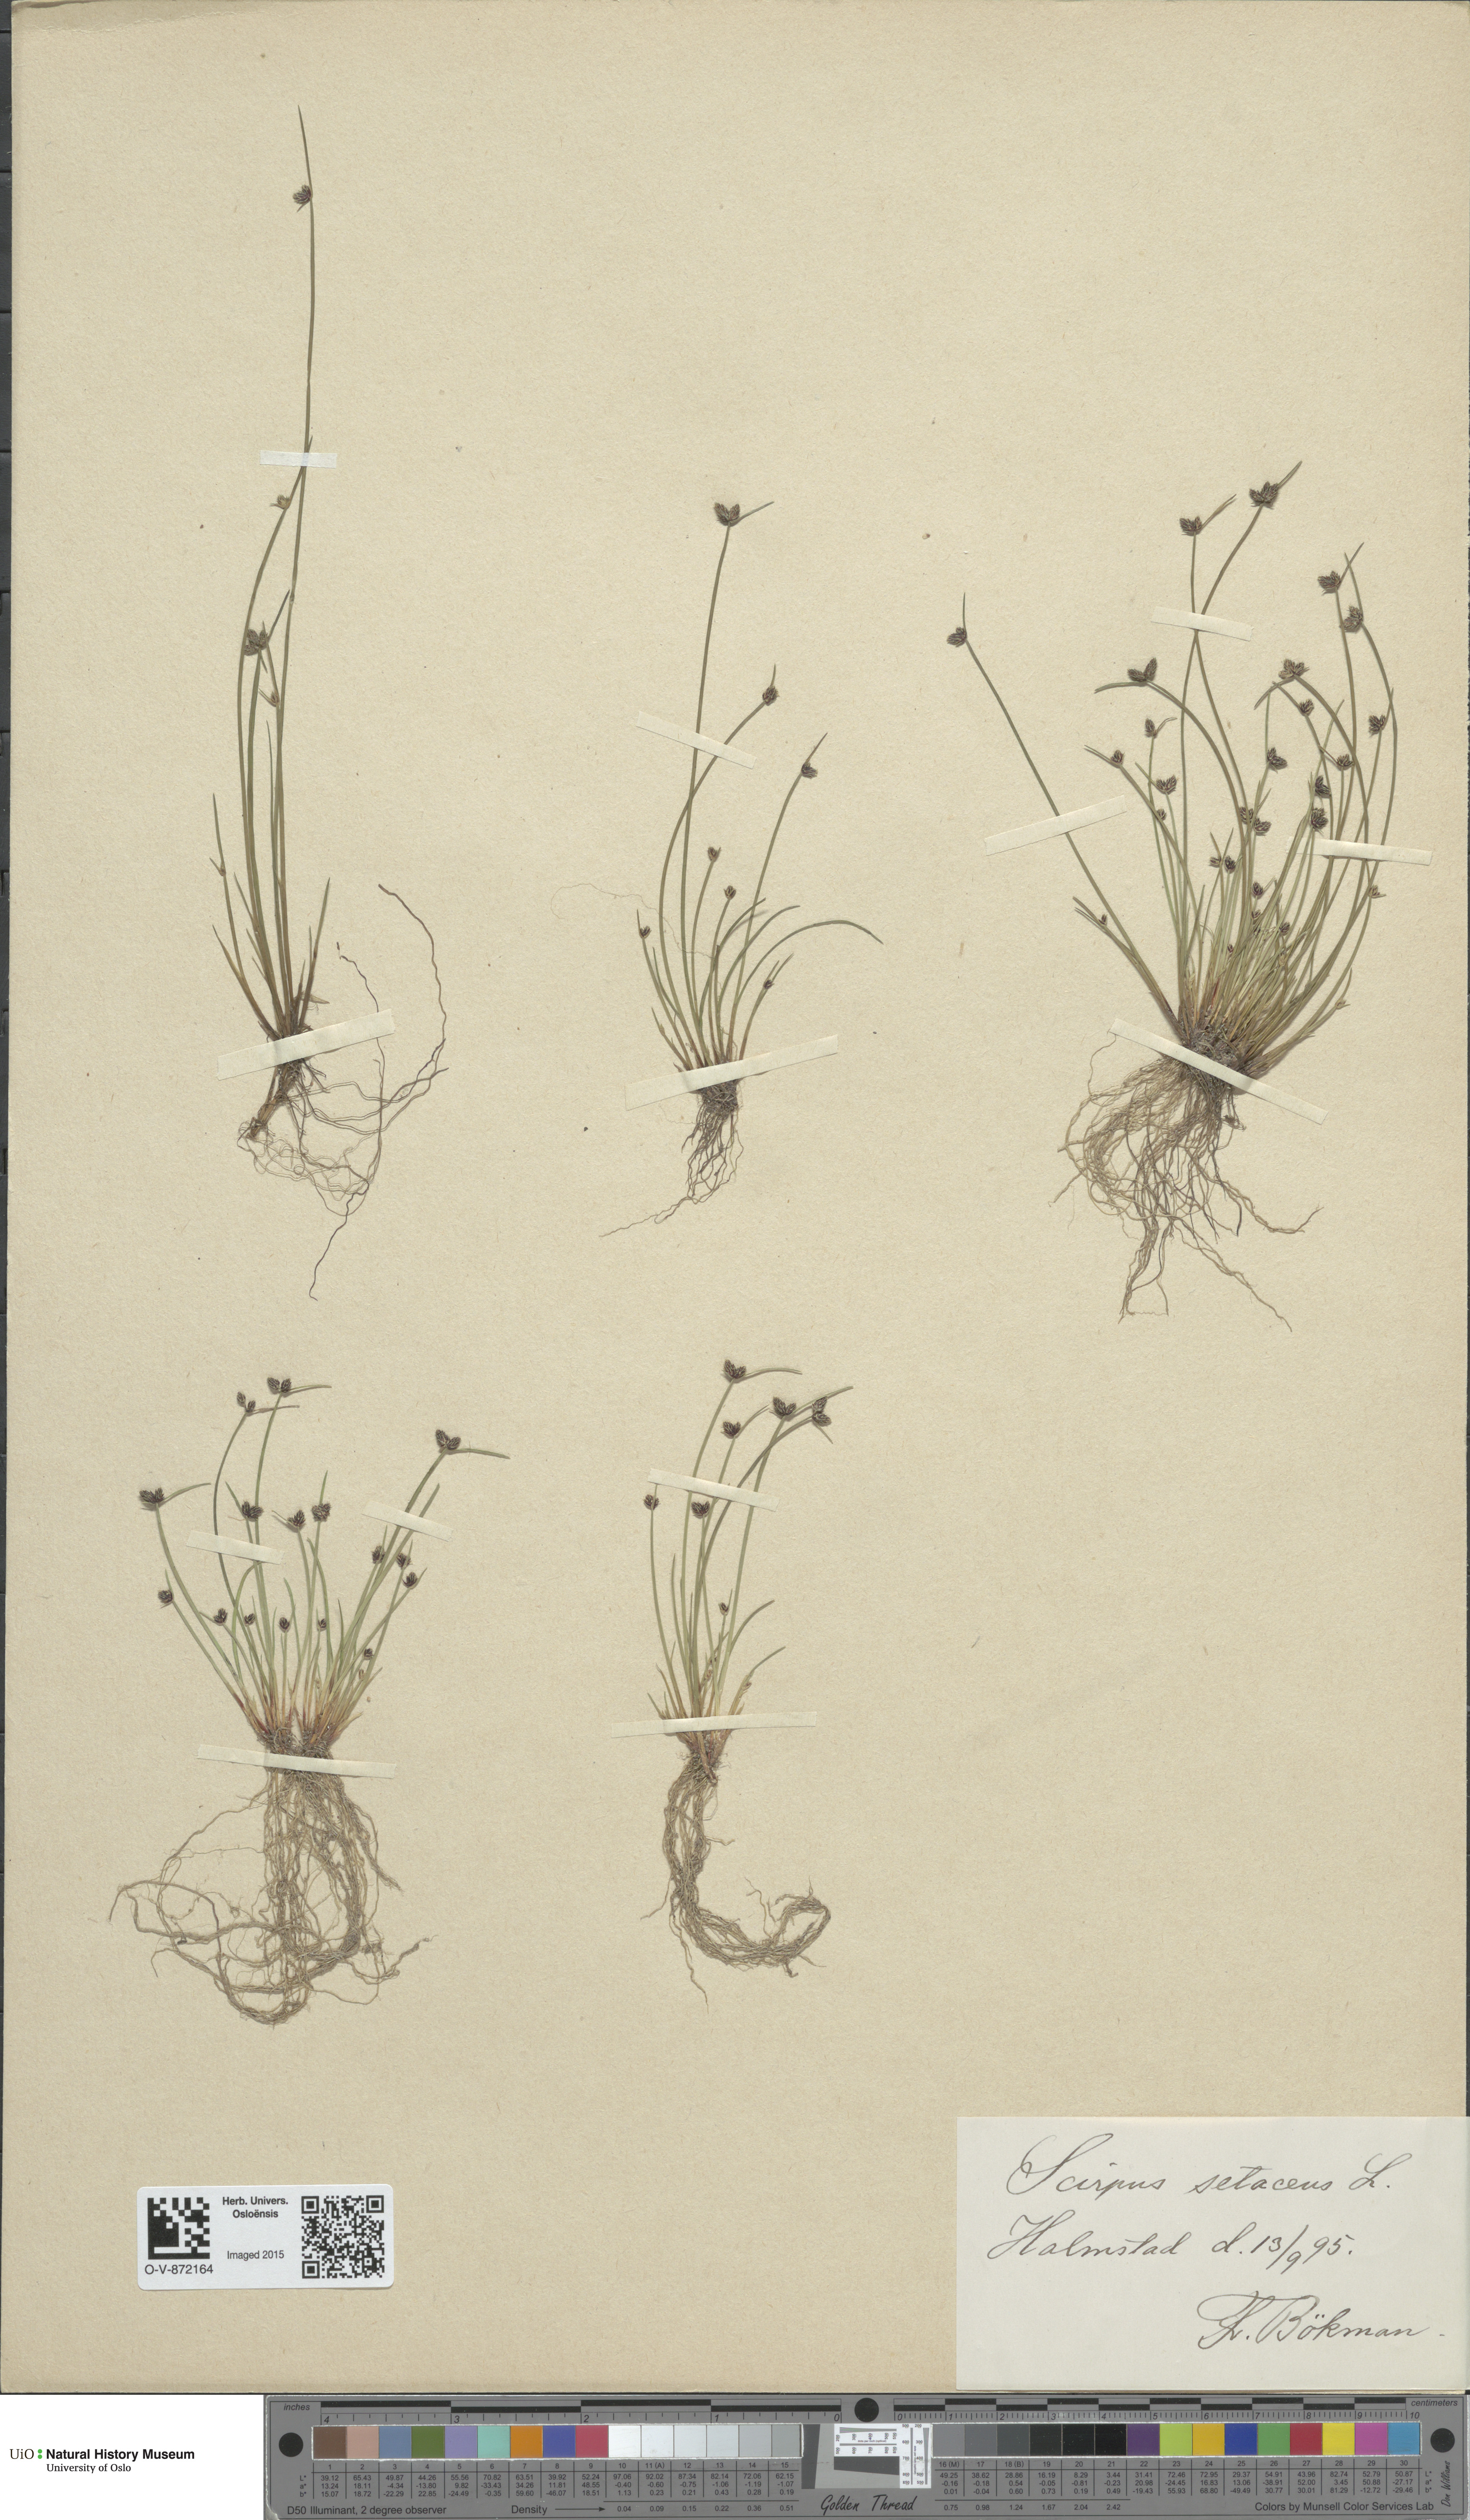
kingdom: Plantae
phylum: Tracheophyta
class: Liliopsida
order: Poales
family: Cyperaceae
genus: Isolepis
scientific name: Isolepis setacea
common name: Bristle club-rush
